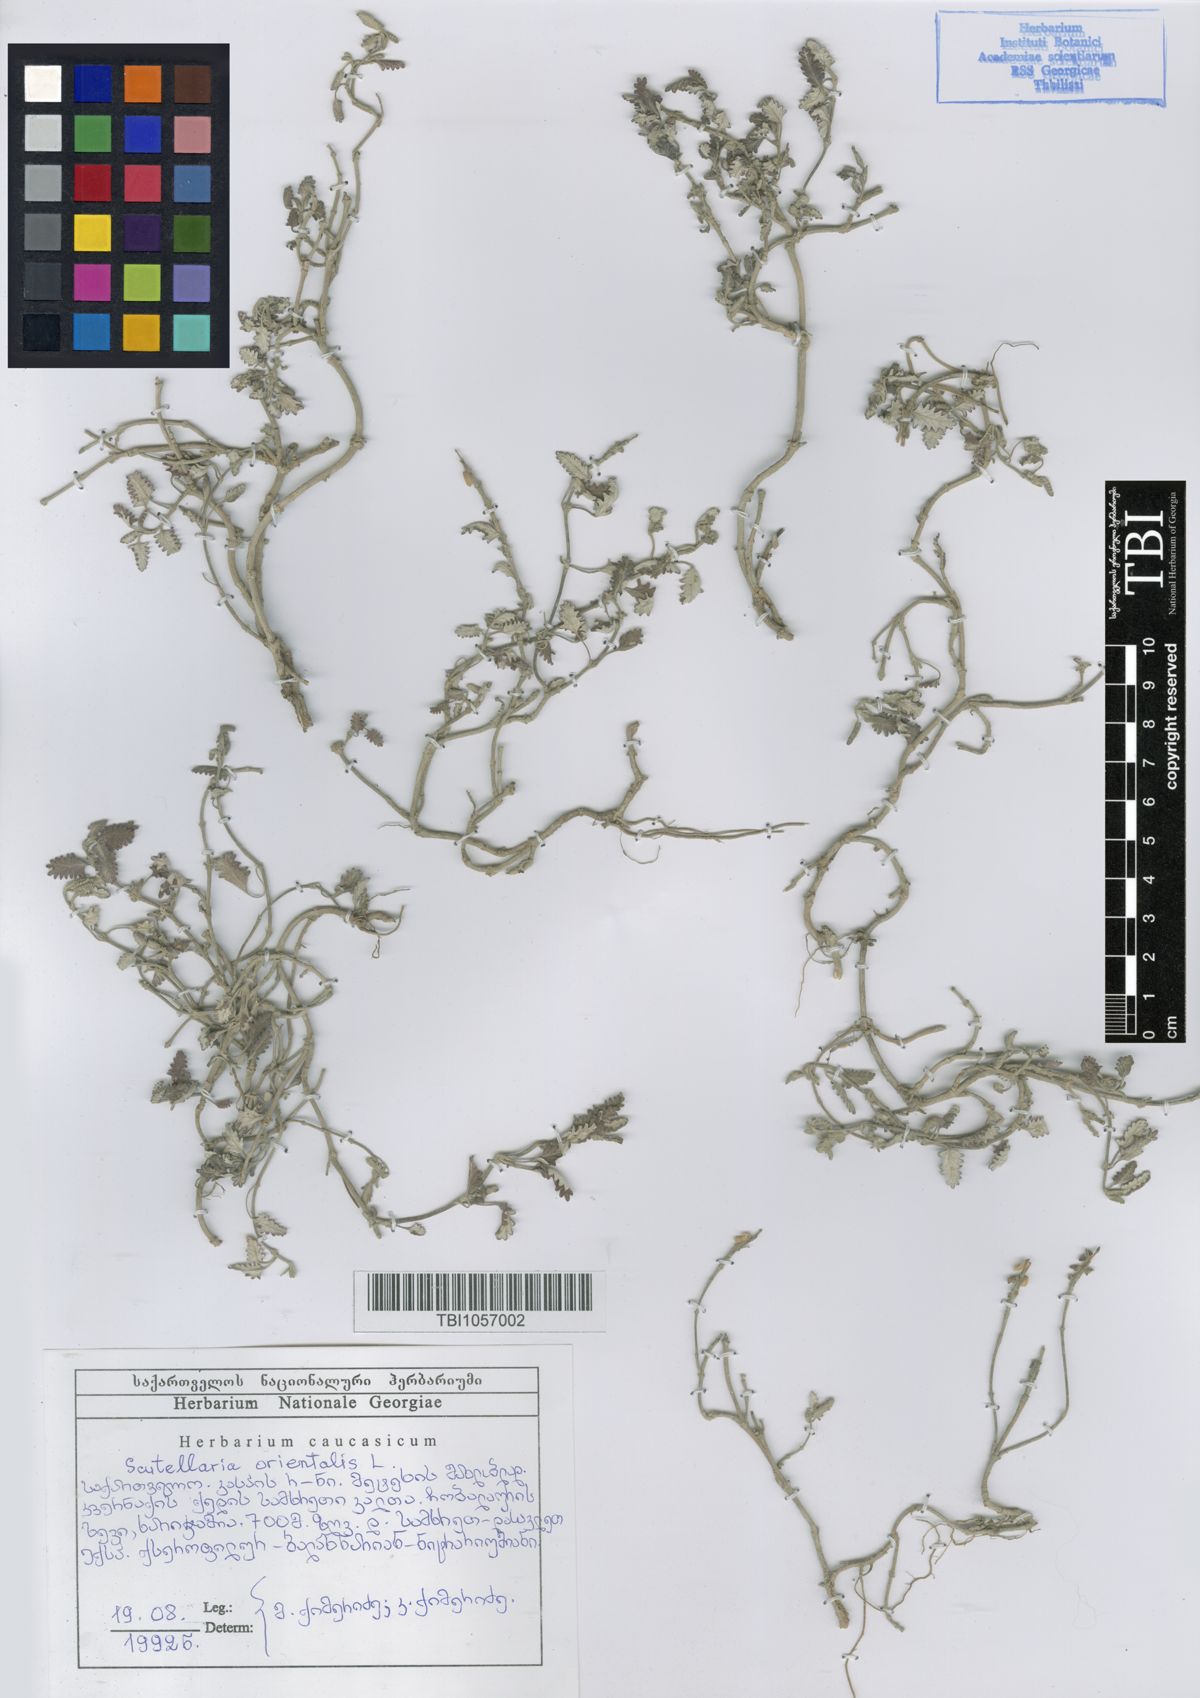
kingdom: Plantae
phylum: Tracheophyta
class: Magnoliopsida
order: Lamiales
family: Lamiaceae
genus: Scutellaria
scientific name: Scutellaria orientalis
